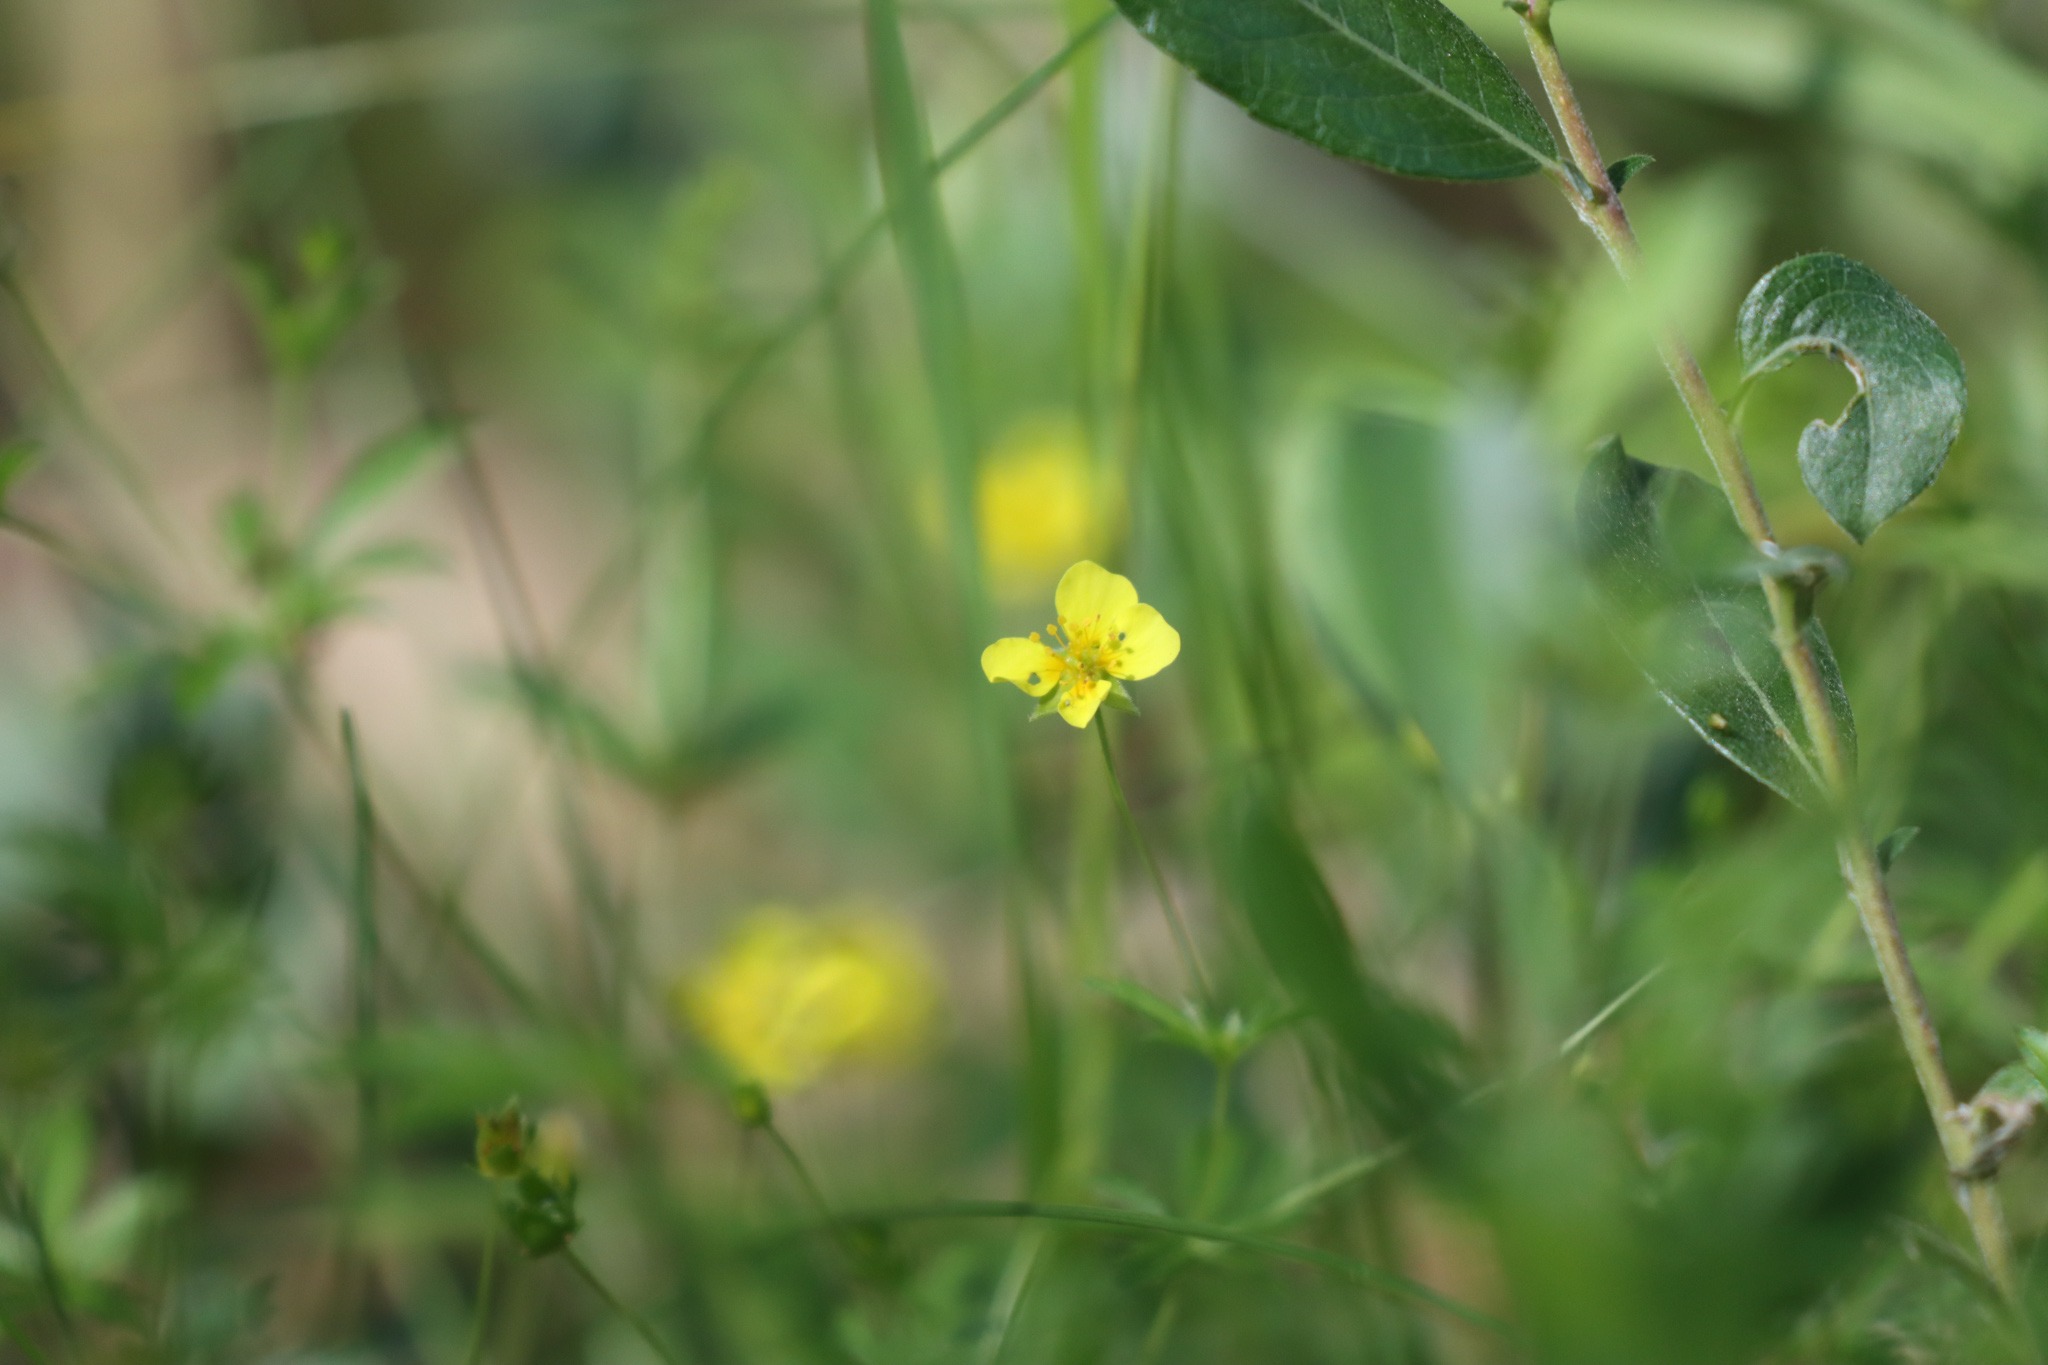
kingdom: Plantae
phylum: Tracheophyta
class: Magnoliopsida
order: Rosales
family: Rosaceae
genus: Potentilla
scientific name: Potentilla erecta
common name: Tormentil
